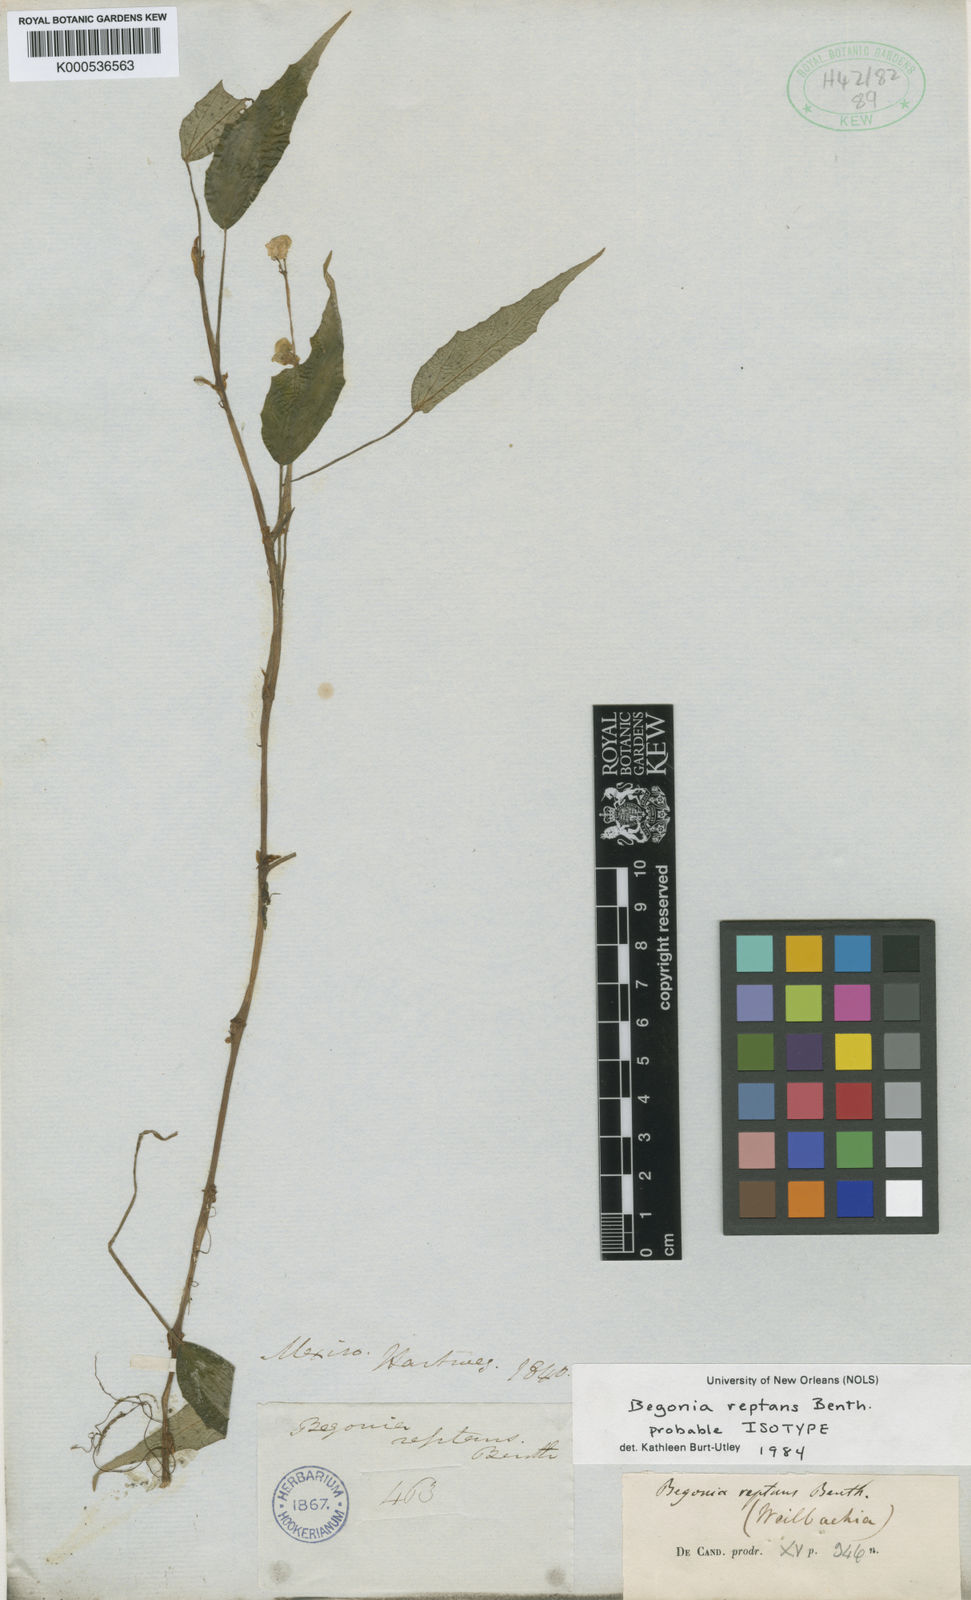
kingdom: Plantae
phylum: Tracheophyta
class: Magnoliopsida
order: Cucurbitales
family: Begoniaceae
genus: Begonia
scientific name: Begonia reptans
